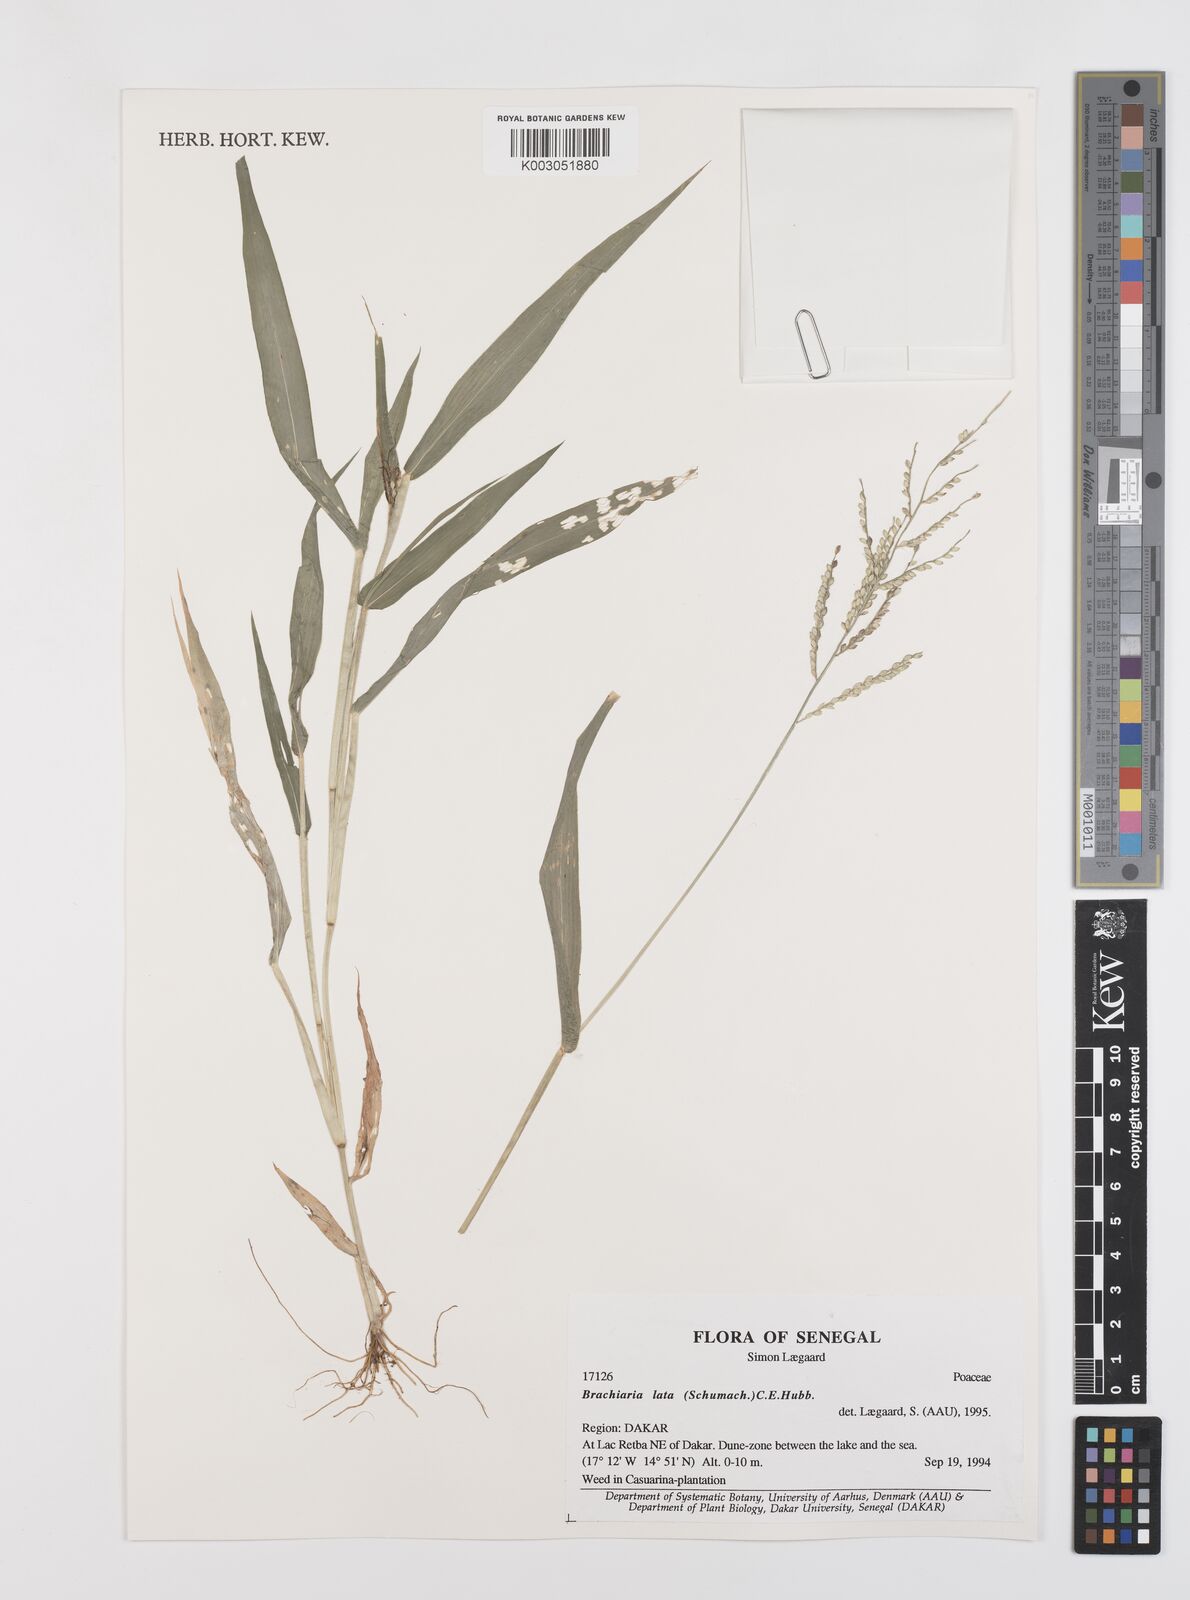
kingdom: Plantae
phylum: Tracheophyta
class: Liliopsida
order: Poales
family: Poaceae
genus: Urochloa
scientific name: Urochloa lata
